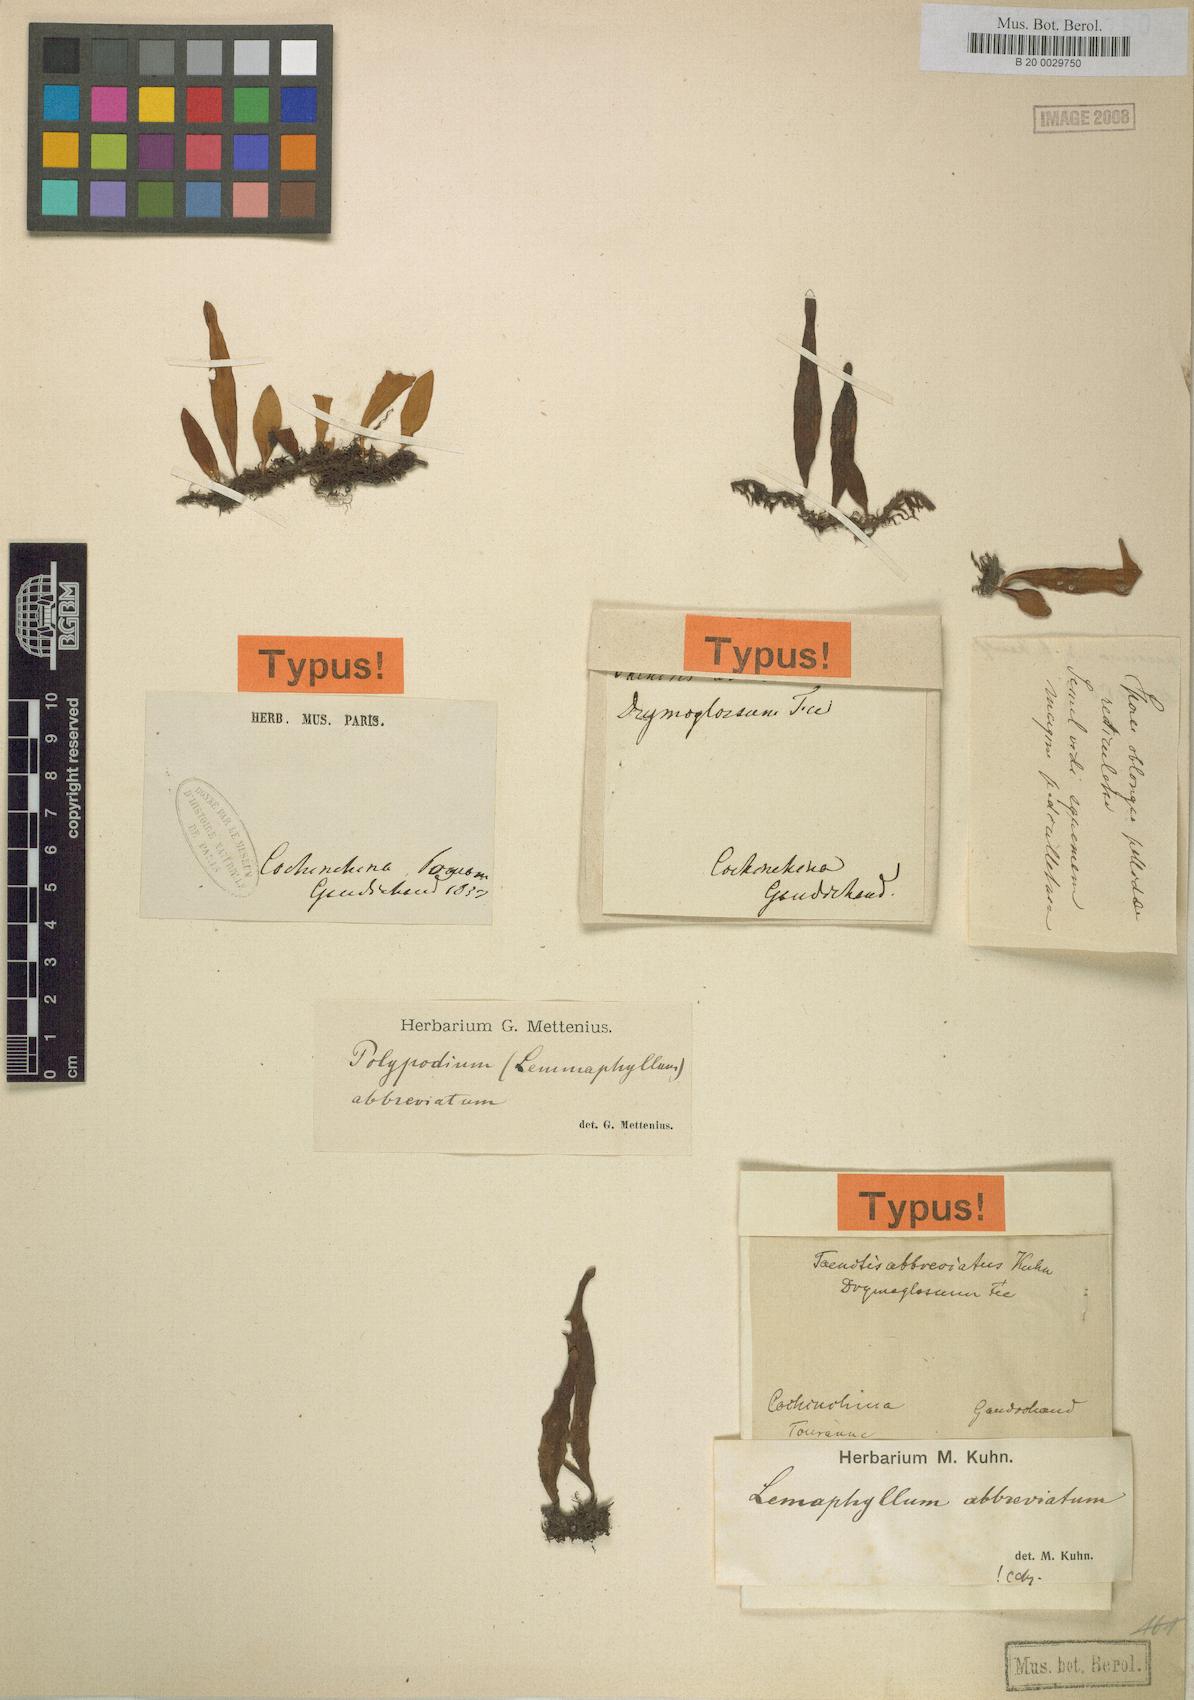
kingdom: Plantae
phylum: Tracheophyta
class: Polypodiopsida
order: Polypodiales
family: Polypodiaceae
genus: Lepisorus
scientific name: Lepisorus abbreviatus
